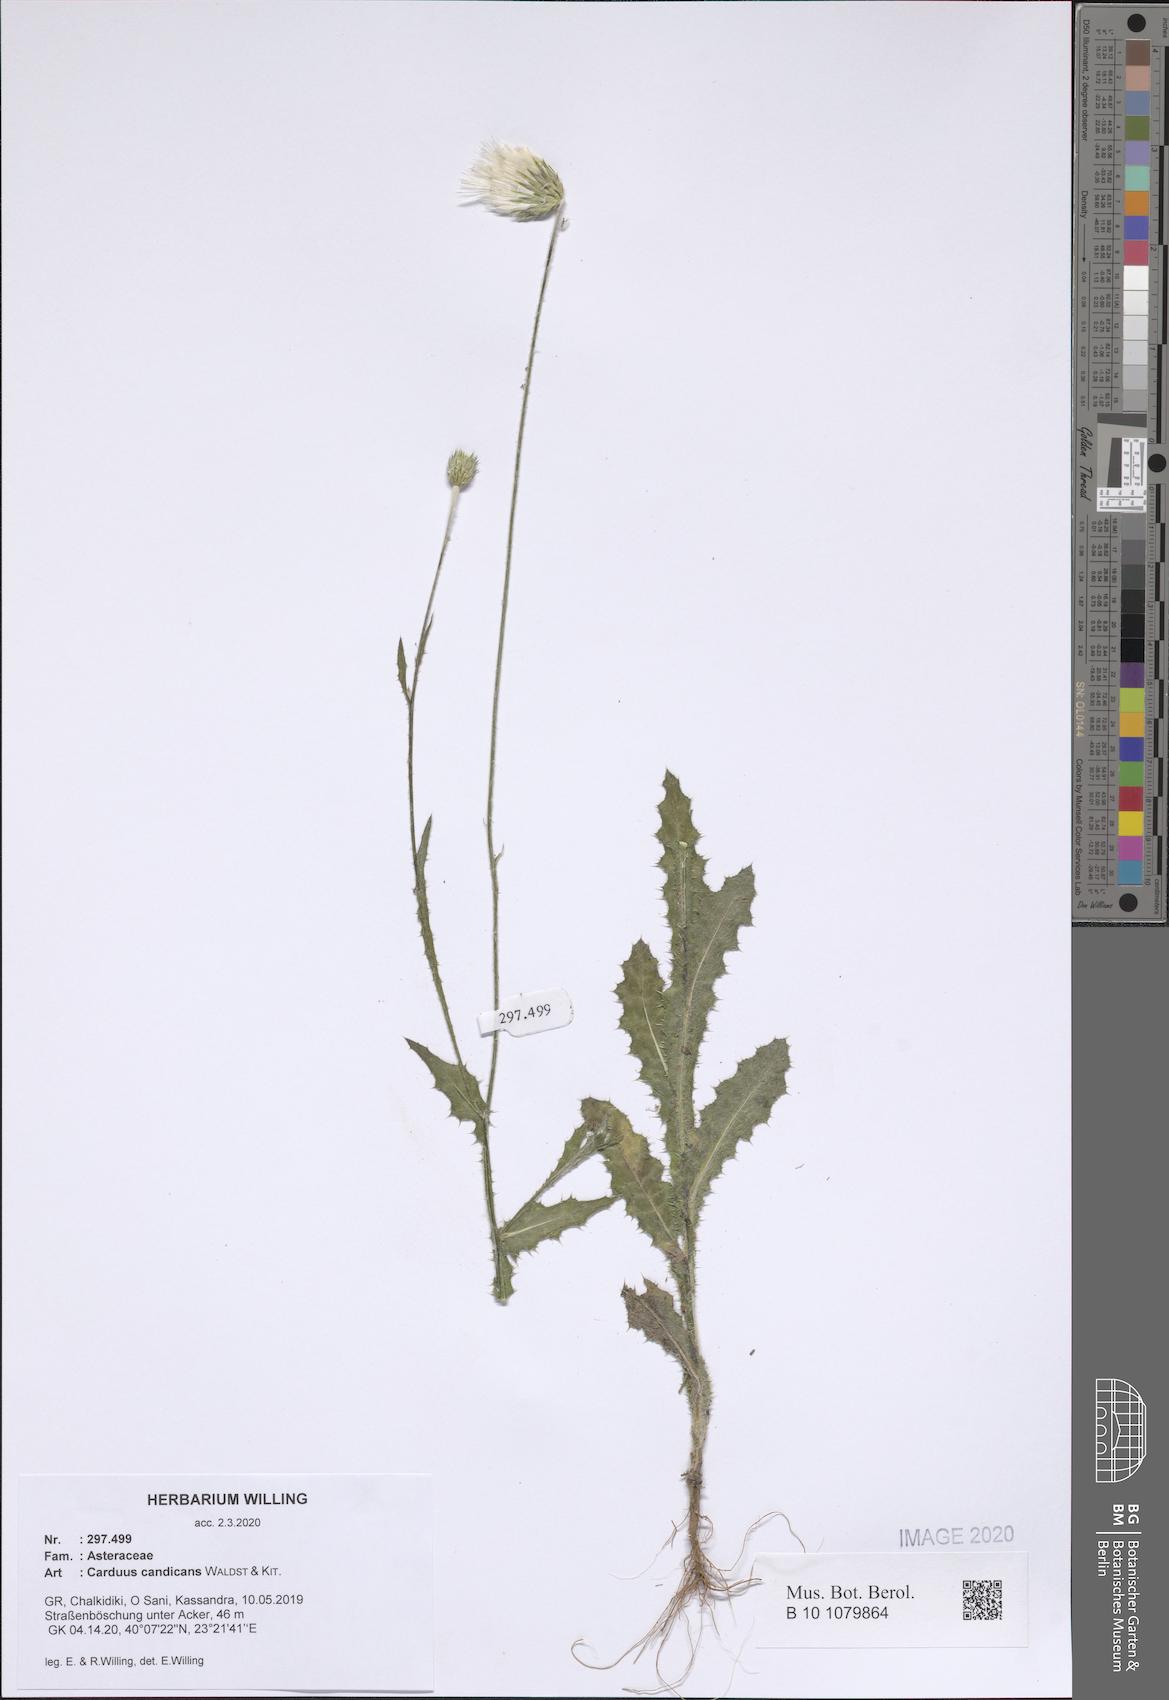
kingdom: Plantae
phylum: Tracheophyta
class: Magnoliopsida
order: Asterales
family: Asteraceae
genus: Carduus
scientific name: Carduus candicans
